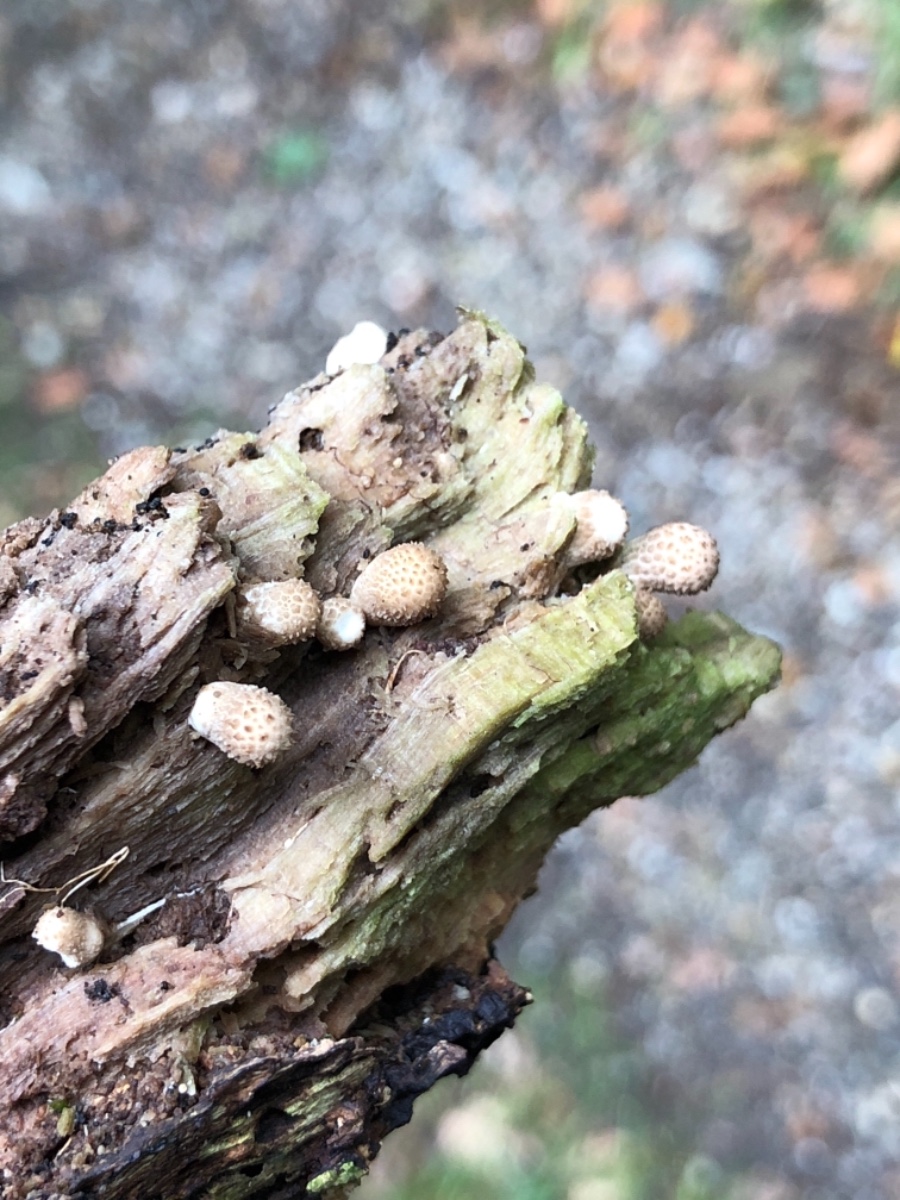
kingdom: Fungi
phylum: Basidiomycota
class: Agaricomycetes
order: Agaricales
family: Lycoperdaceae
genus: Apioperdon
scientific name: Apioperdon pyriforme
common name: pære-støvbold
